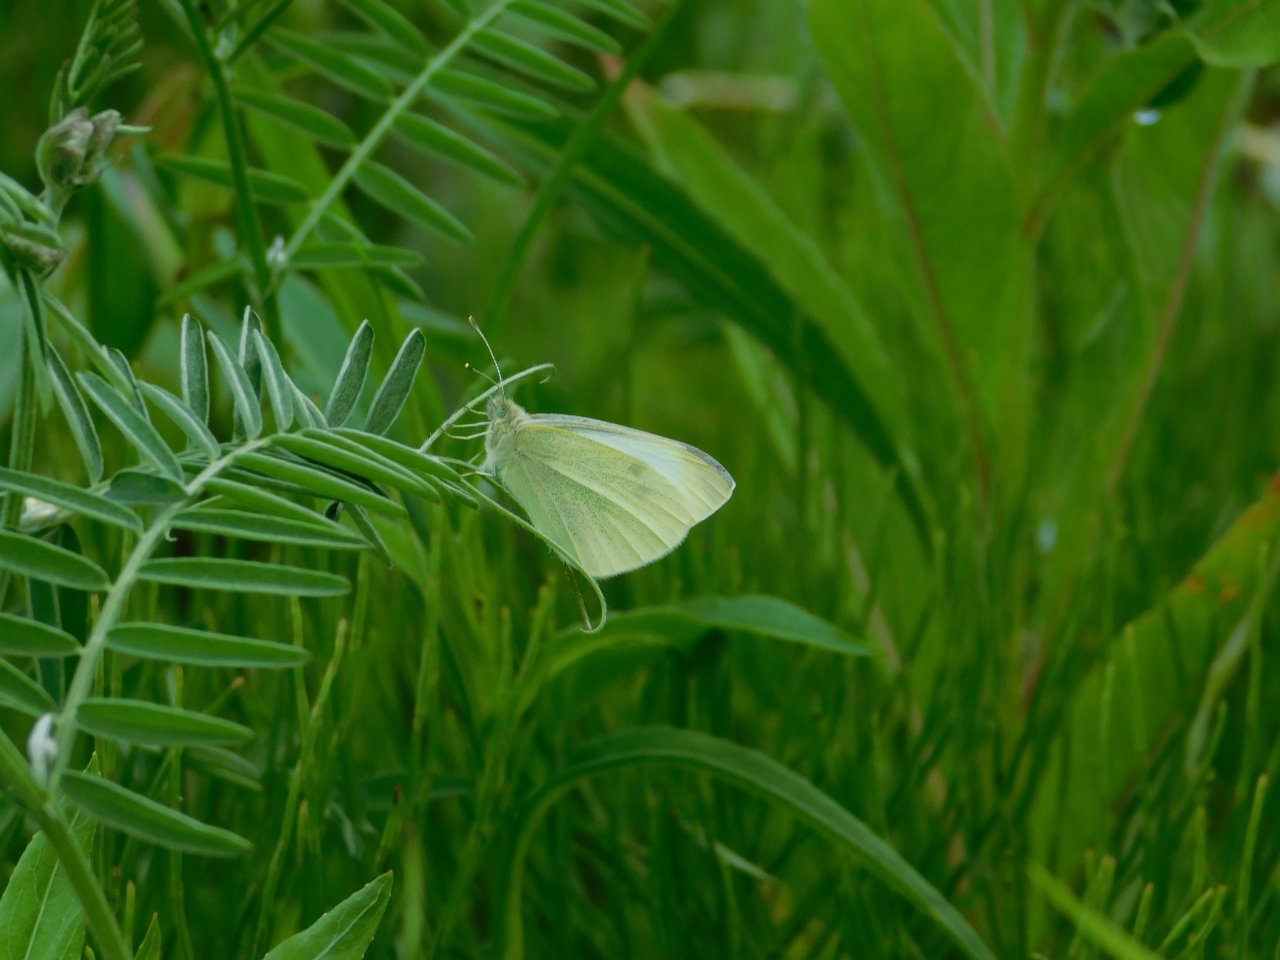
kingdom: Animalia
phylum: Arthropoda
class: Insecta
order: Lepidoptera
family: Pieridae
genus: Pieris
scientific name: Pieris rapae
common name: Cabbage White
